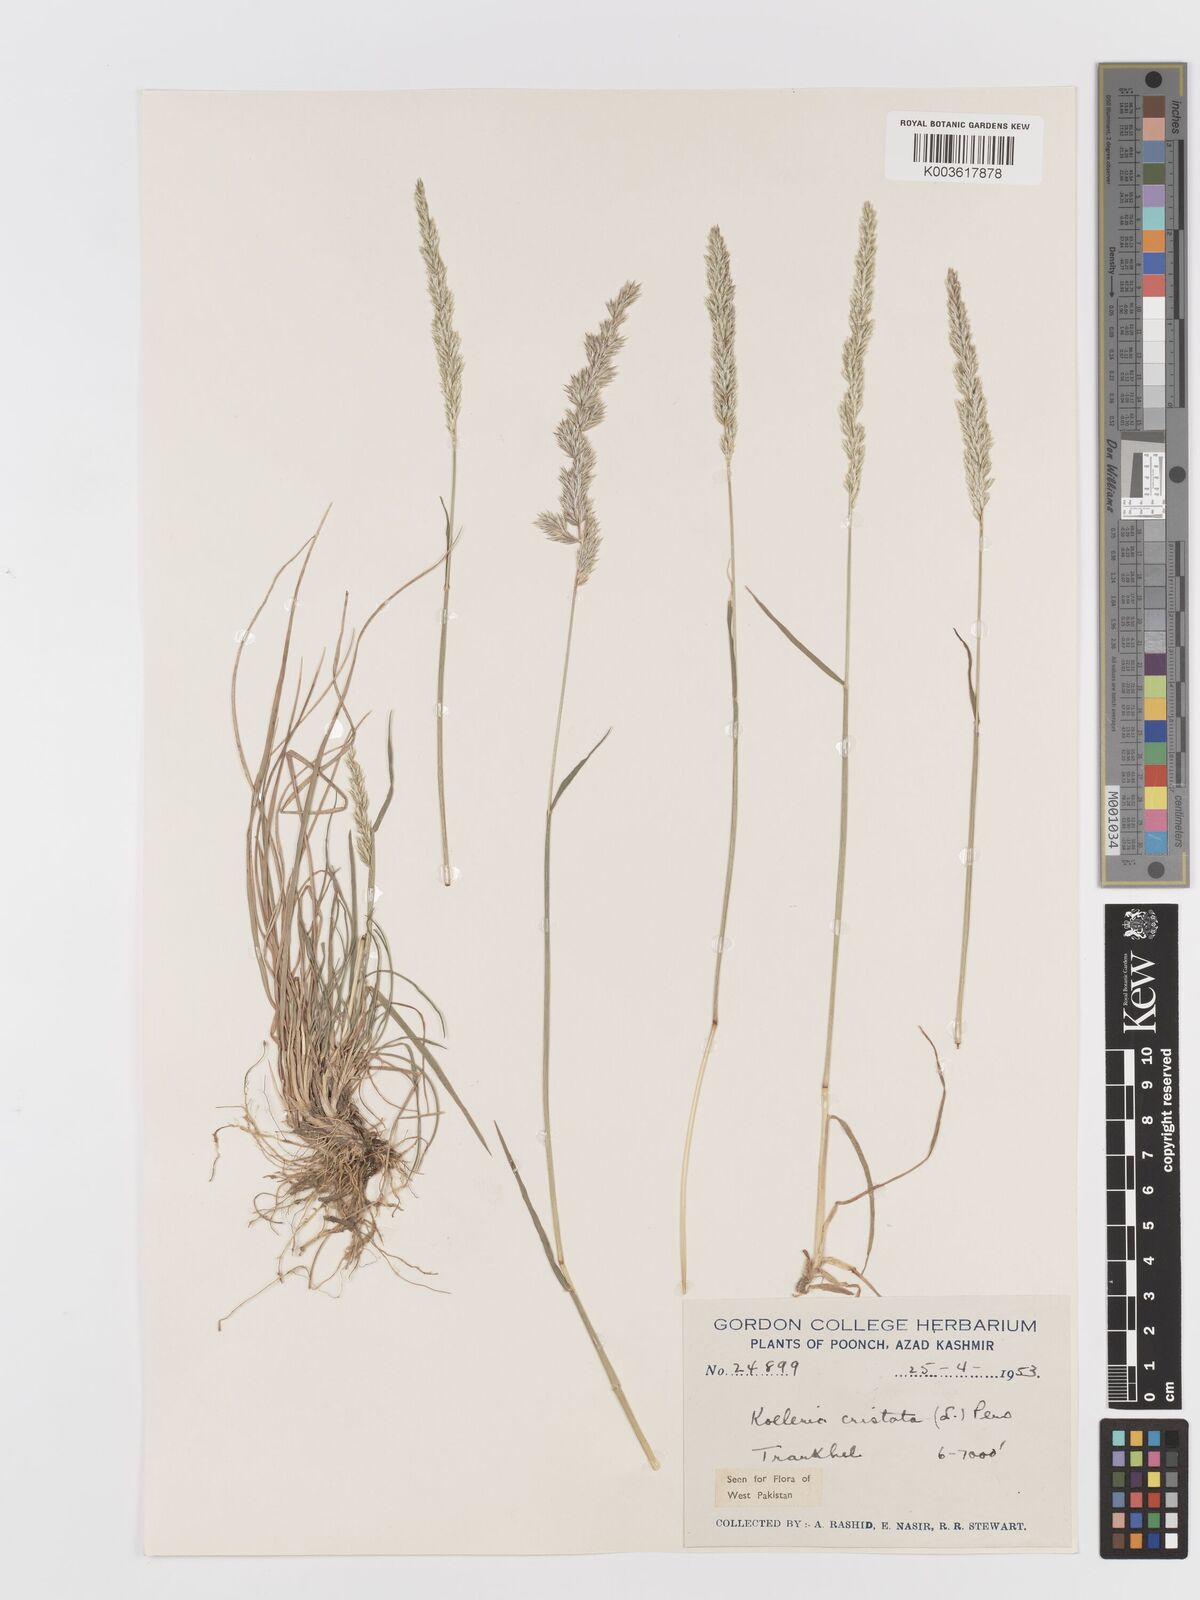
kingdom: Plantae
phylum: Tracheophyta
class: Liliopsida
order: Poales
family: Poaceae
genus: Koeleria
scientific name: Koeleria
